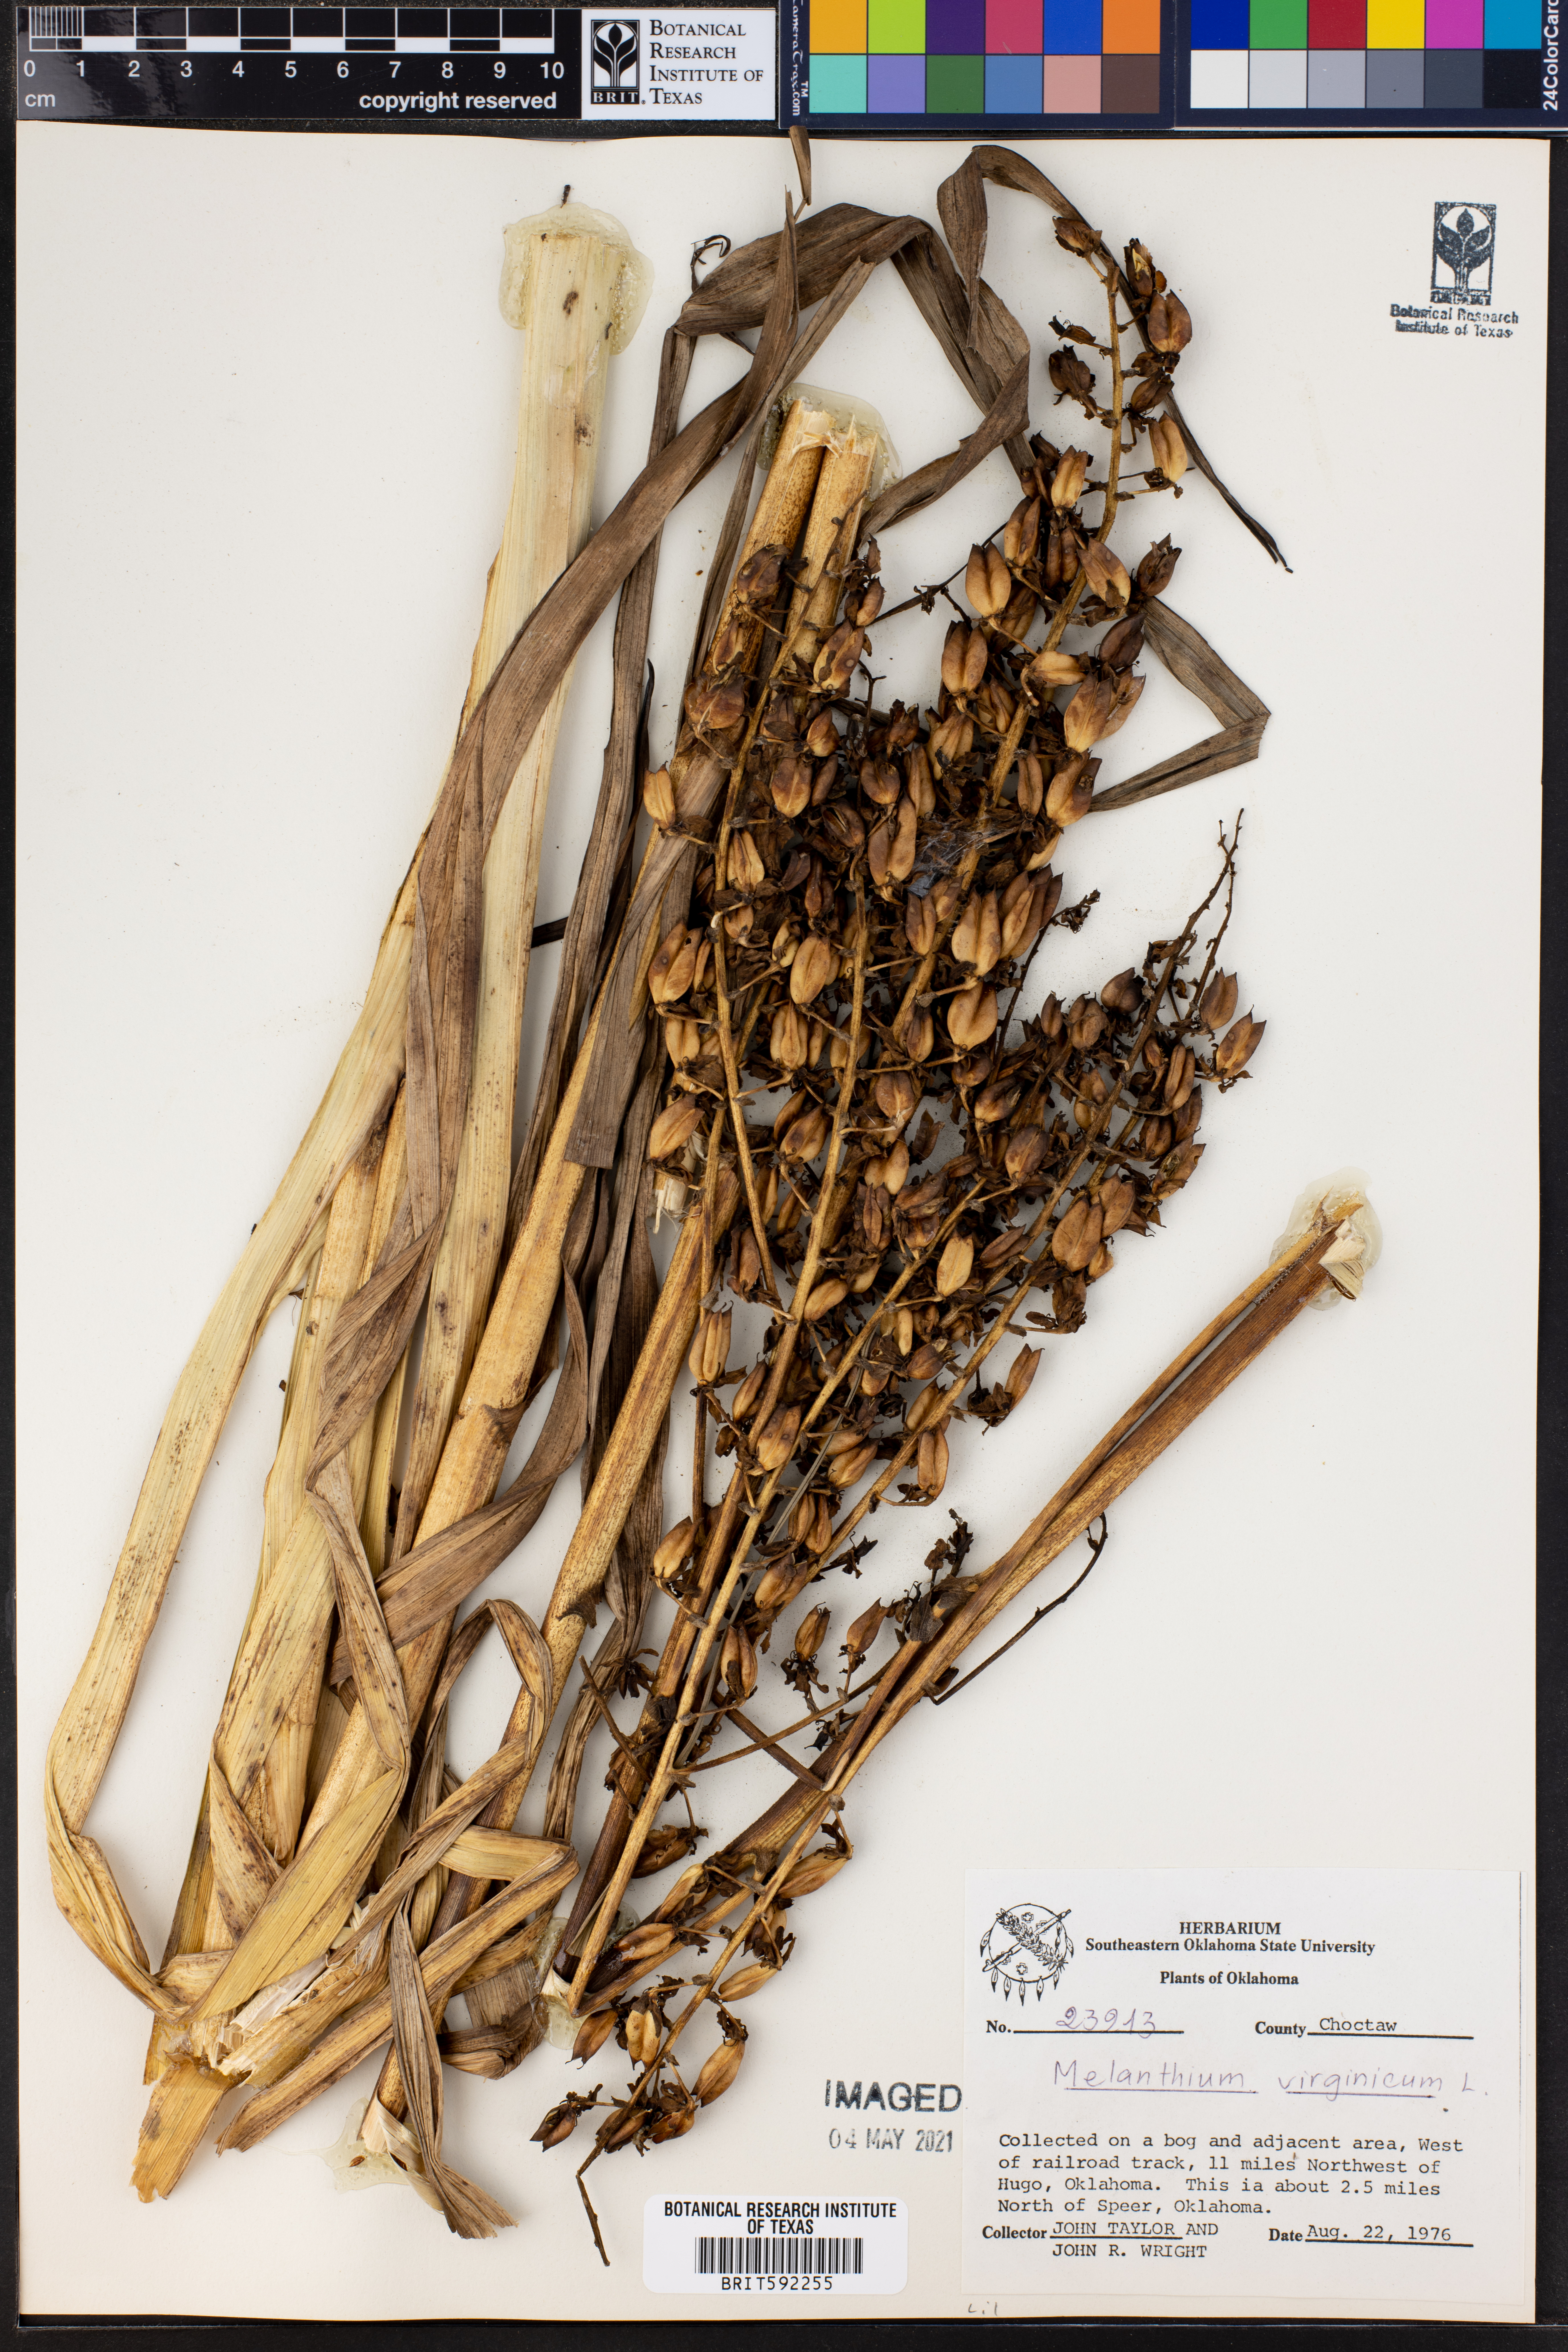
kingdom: Plantae
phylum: Tracheophyta
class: Liliopsida
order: Liliales
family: Melanthiaceae
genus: Melanthium
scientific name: Melanthium virginicum
